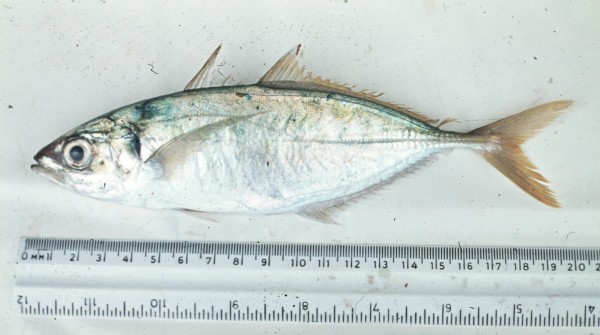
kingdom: Animalia
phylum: Chordata
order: Perciformes
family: Carangidae
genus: Decapterus
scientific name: Decapterus
